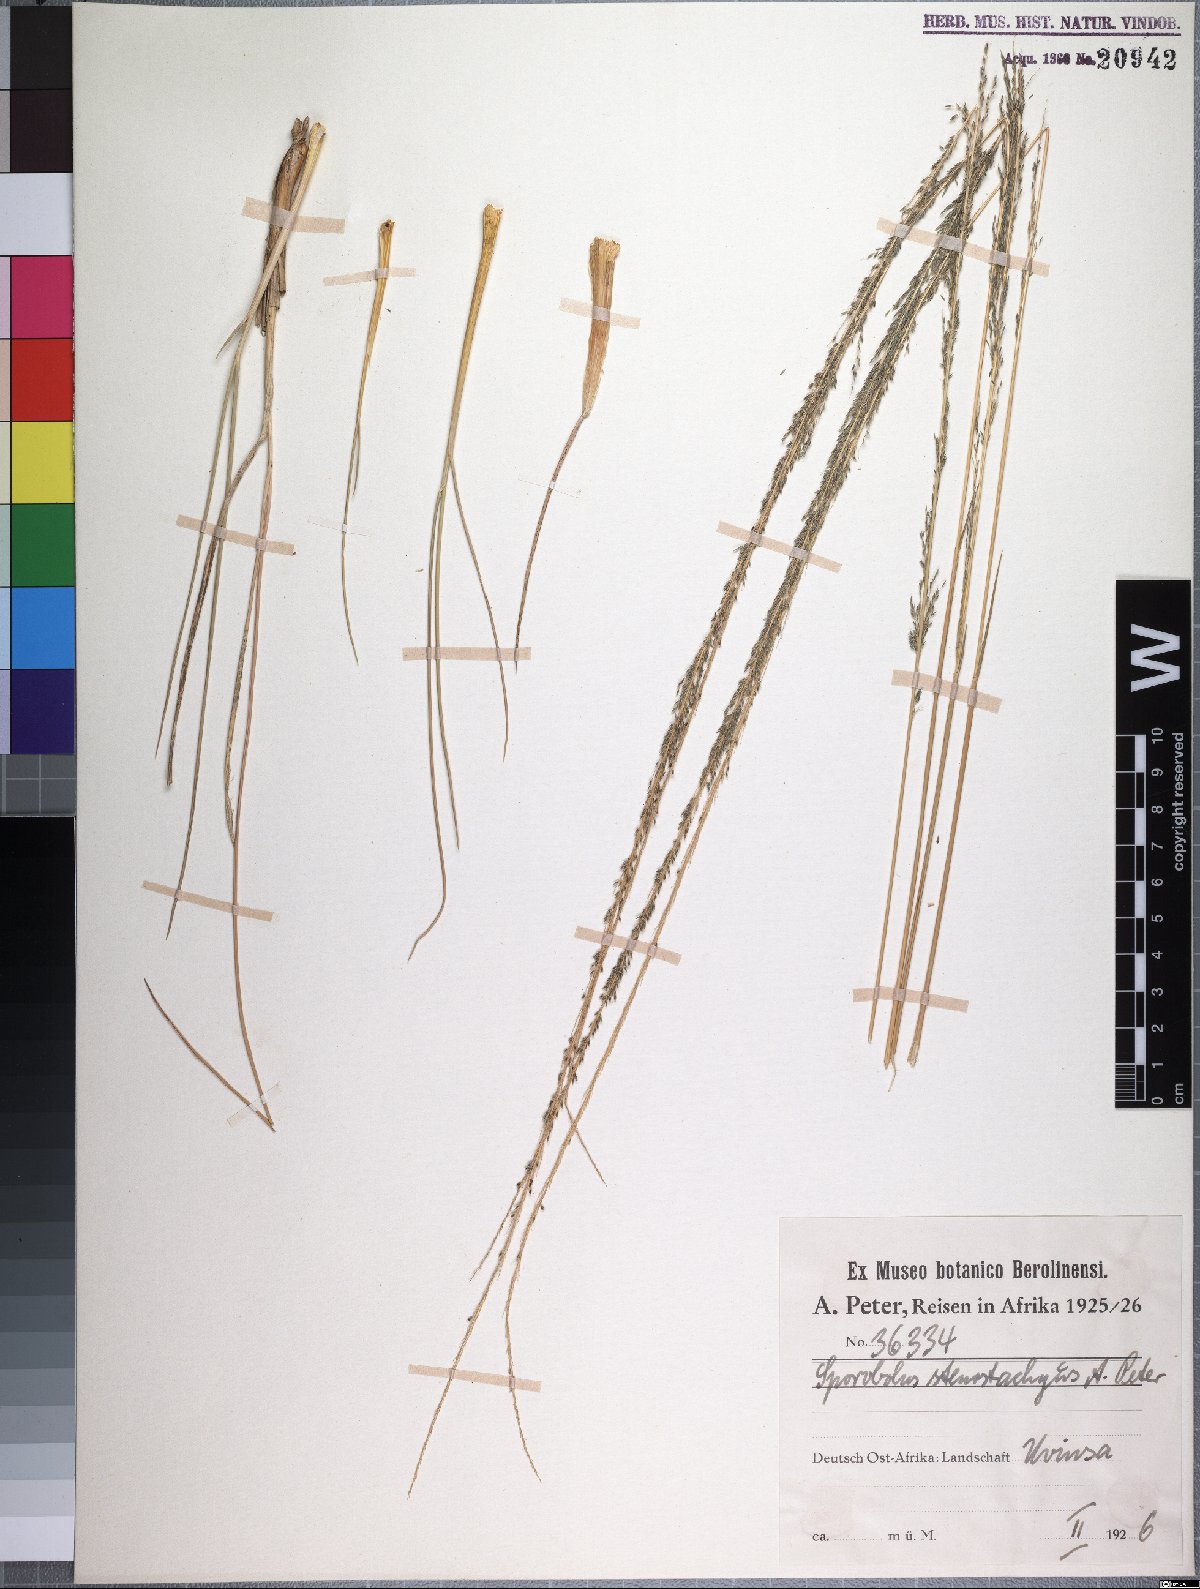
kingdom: Plantae
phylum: Tracheophyta
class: Liliopsida
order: Poales
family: Poaceae
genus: Sporobolus
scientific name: Sporobolus consimilis
